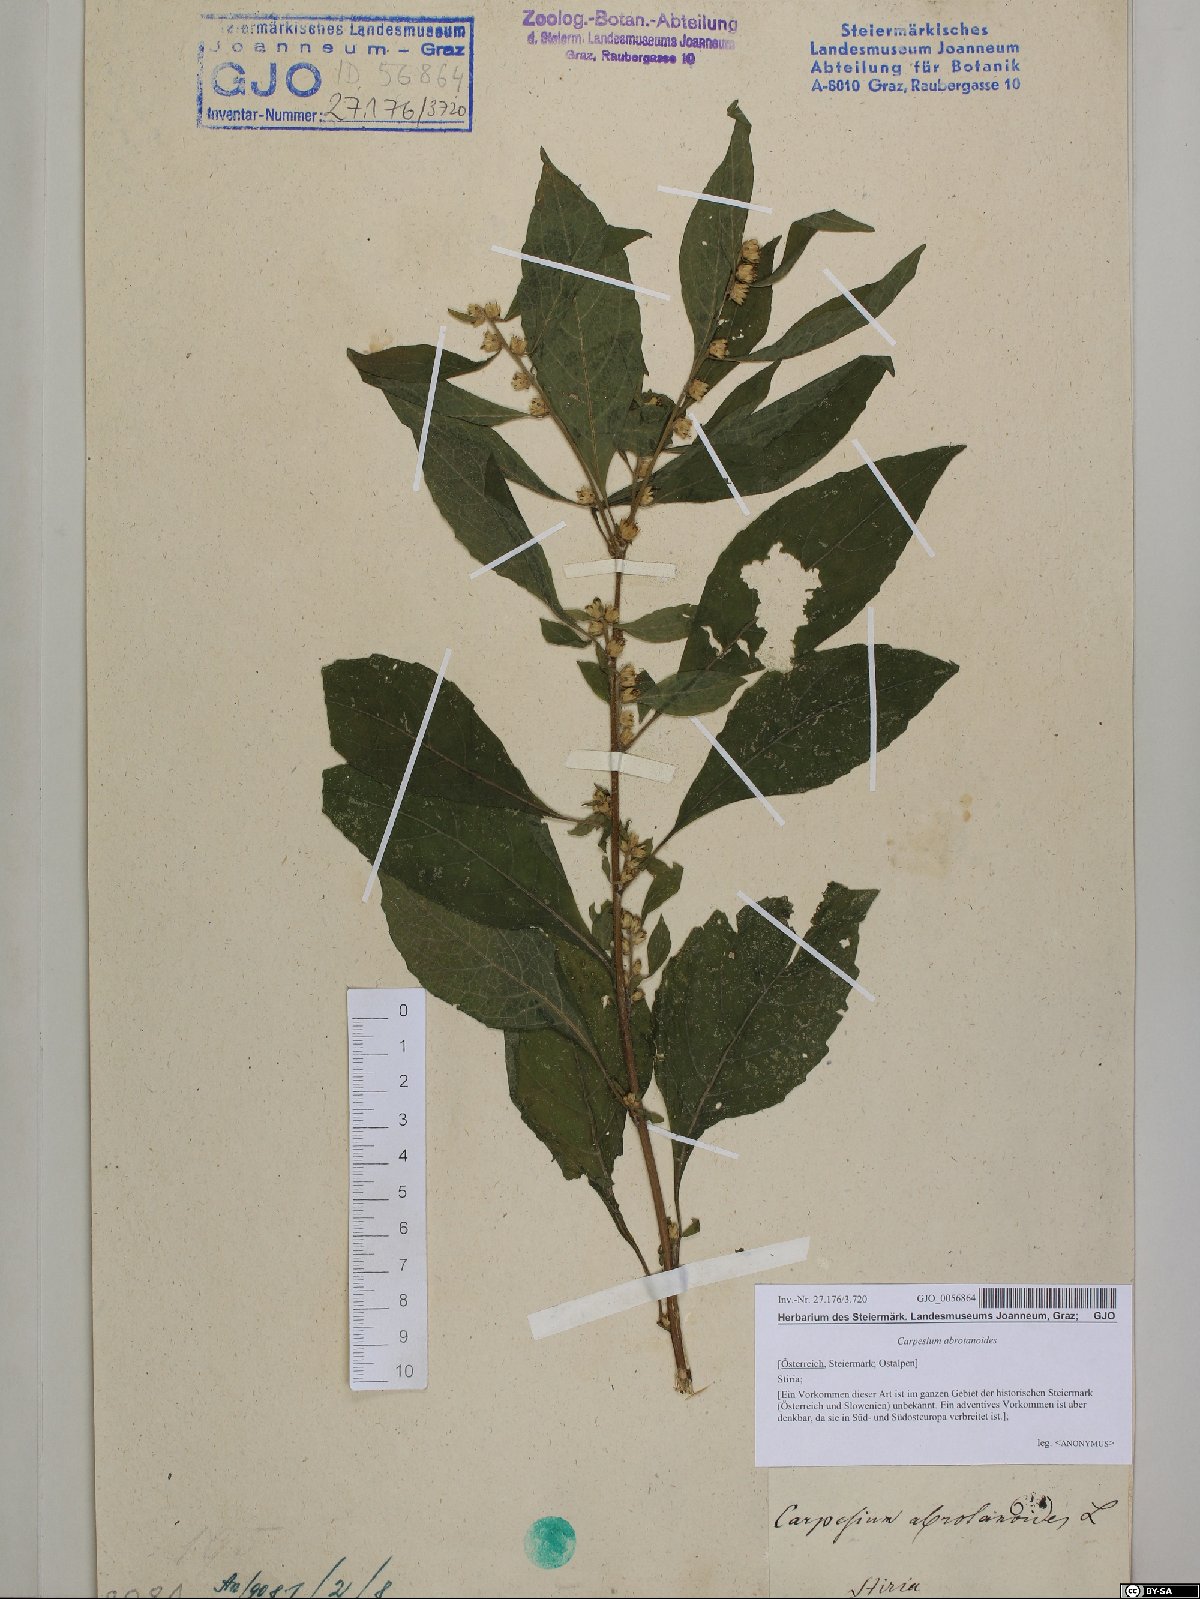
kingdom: Plantae
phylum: Tracheophyta
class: Magnoliopsida
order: Asterales
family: Asteraceae
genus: Carpesium
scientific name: Carpesium abrotanoides
